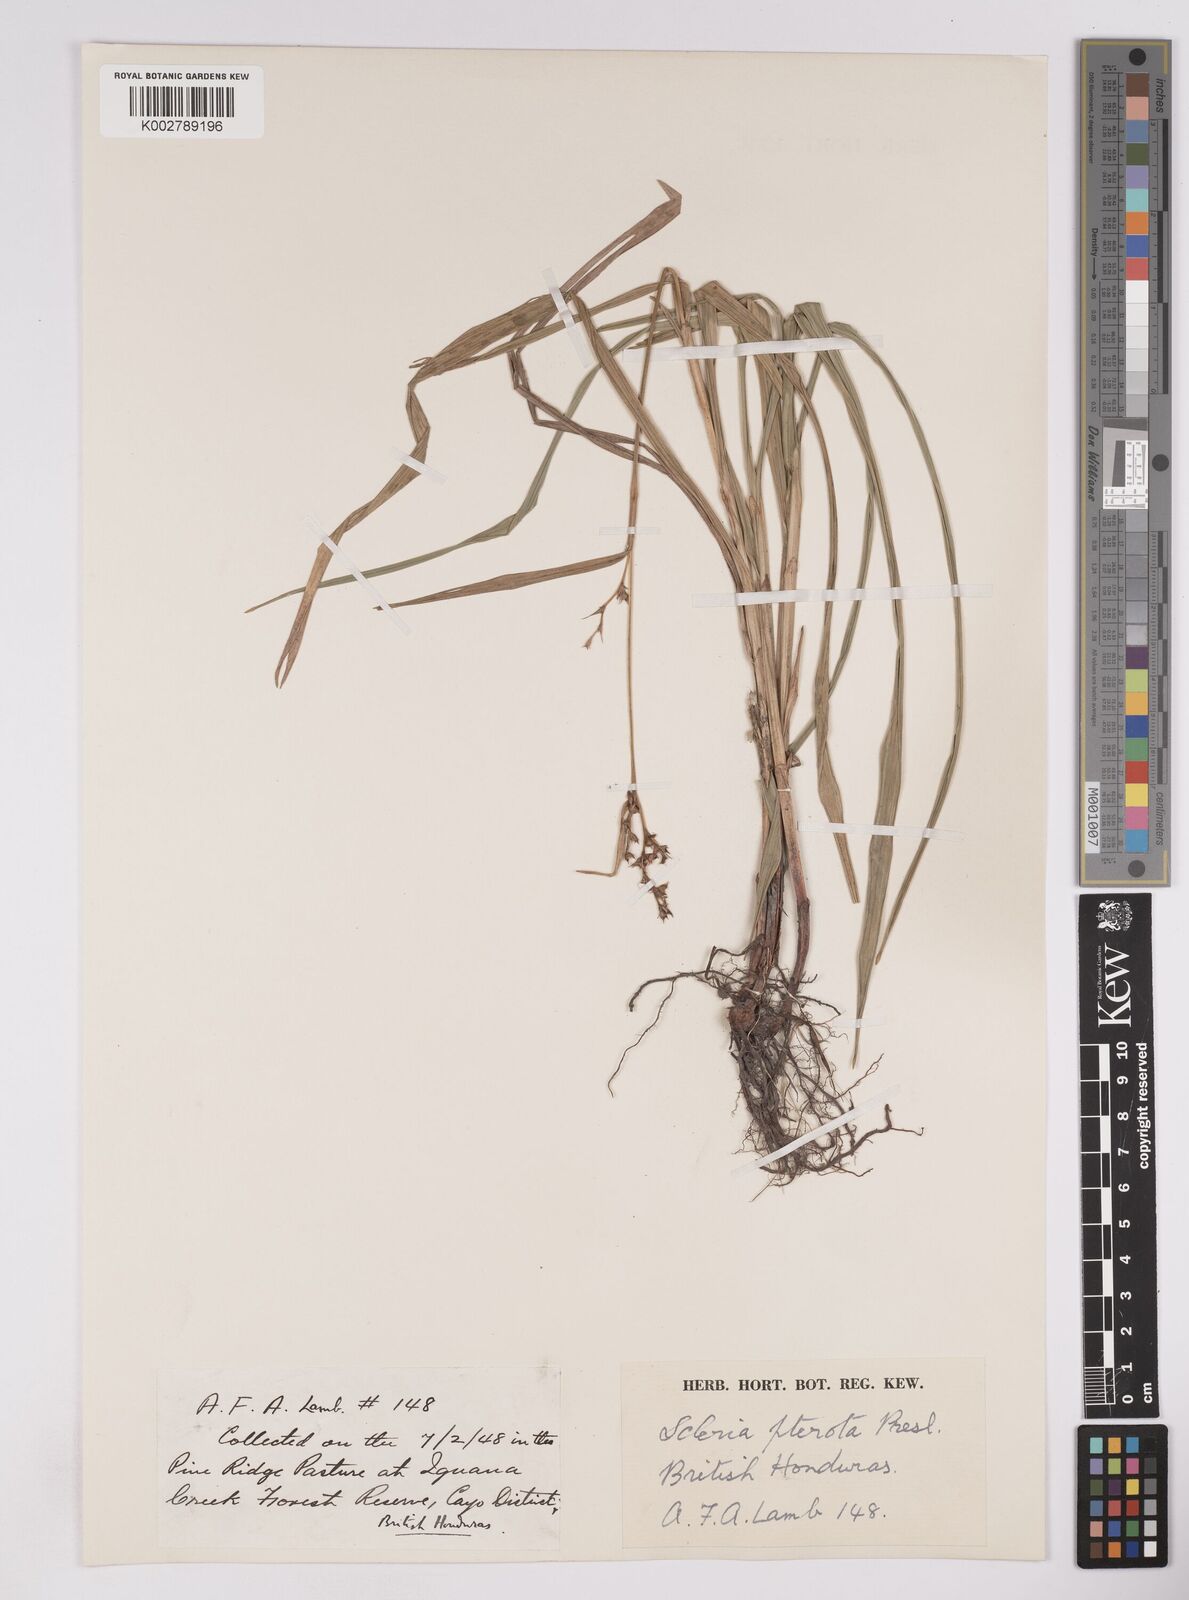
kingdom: Plantae
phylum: Tracheophyta
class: Liliopsida
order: Poales
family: Cyperaceae
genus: Scleria
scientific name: Scleria gaertneri
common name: Cortadera blanca
